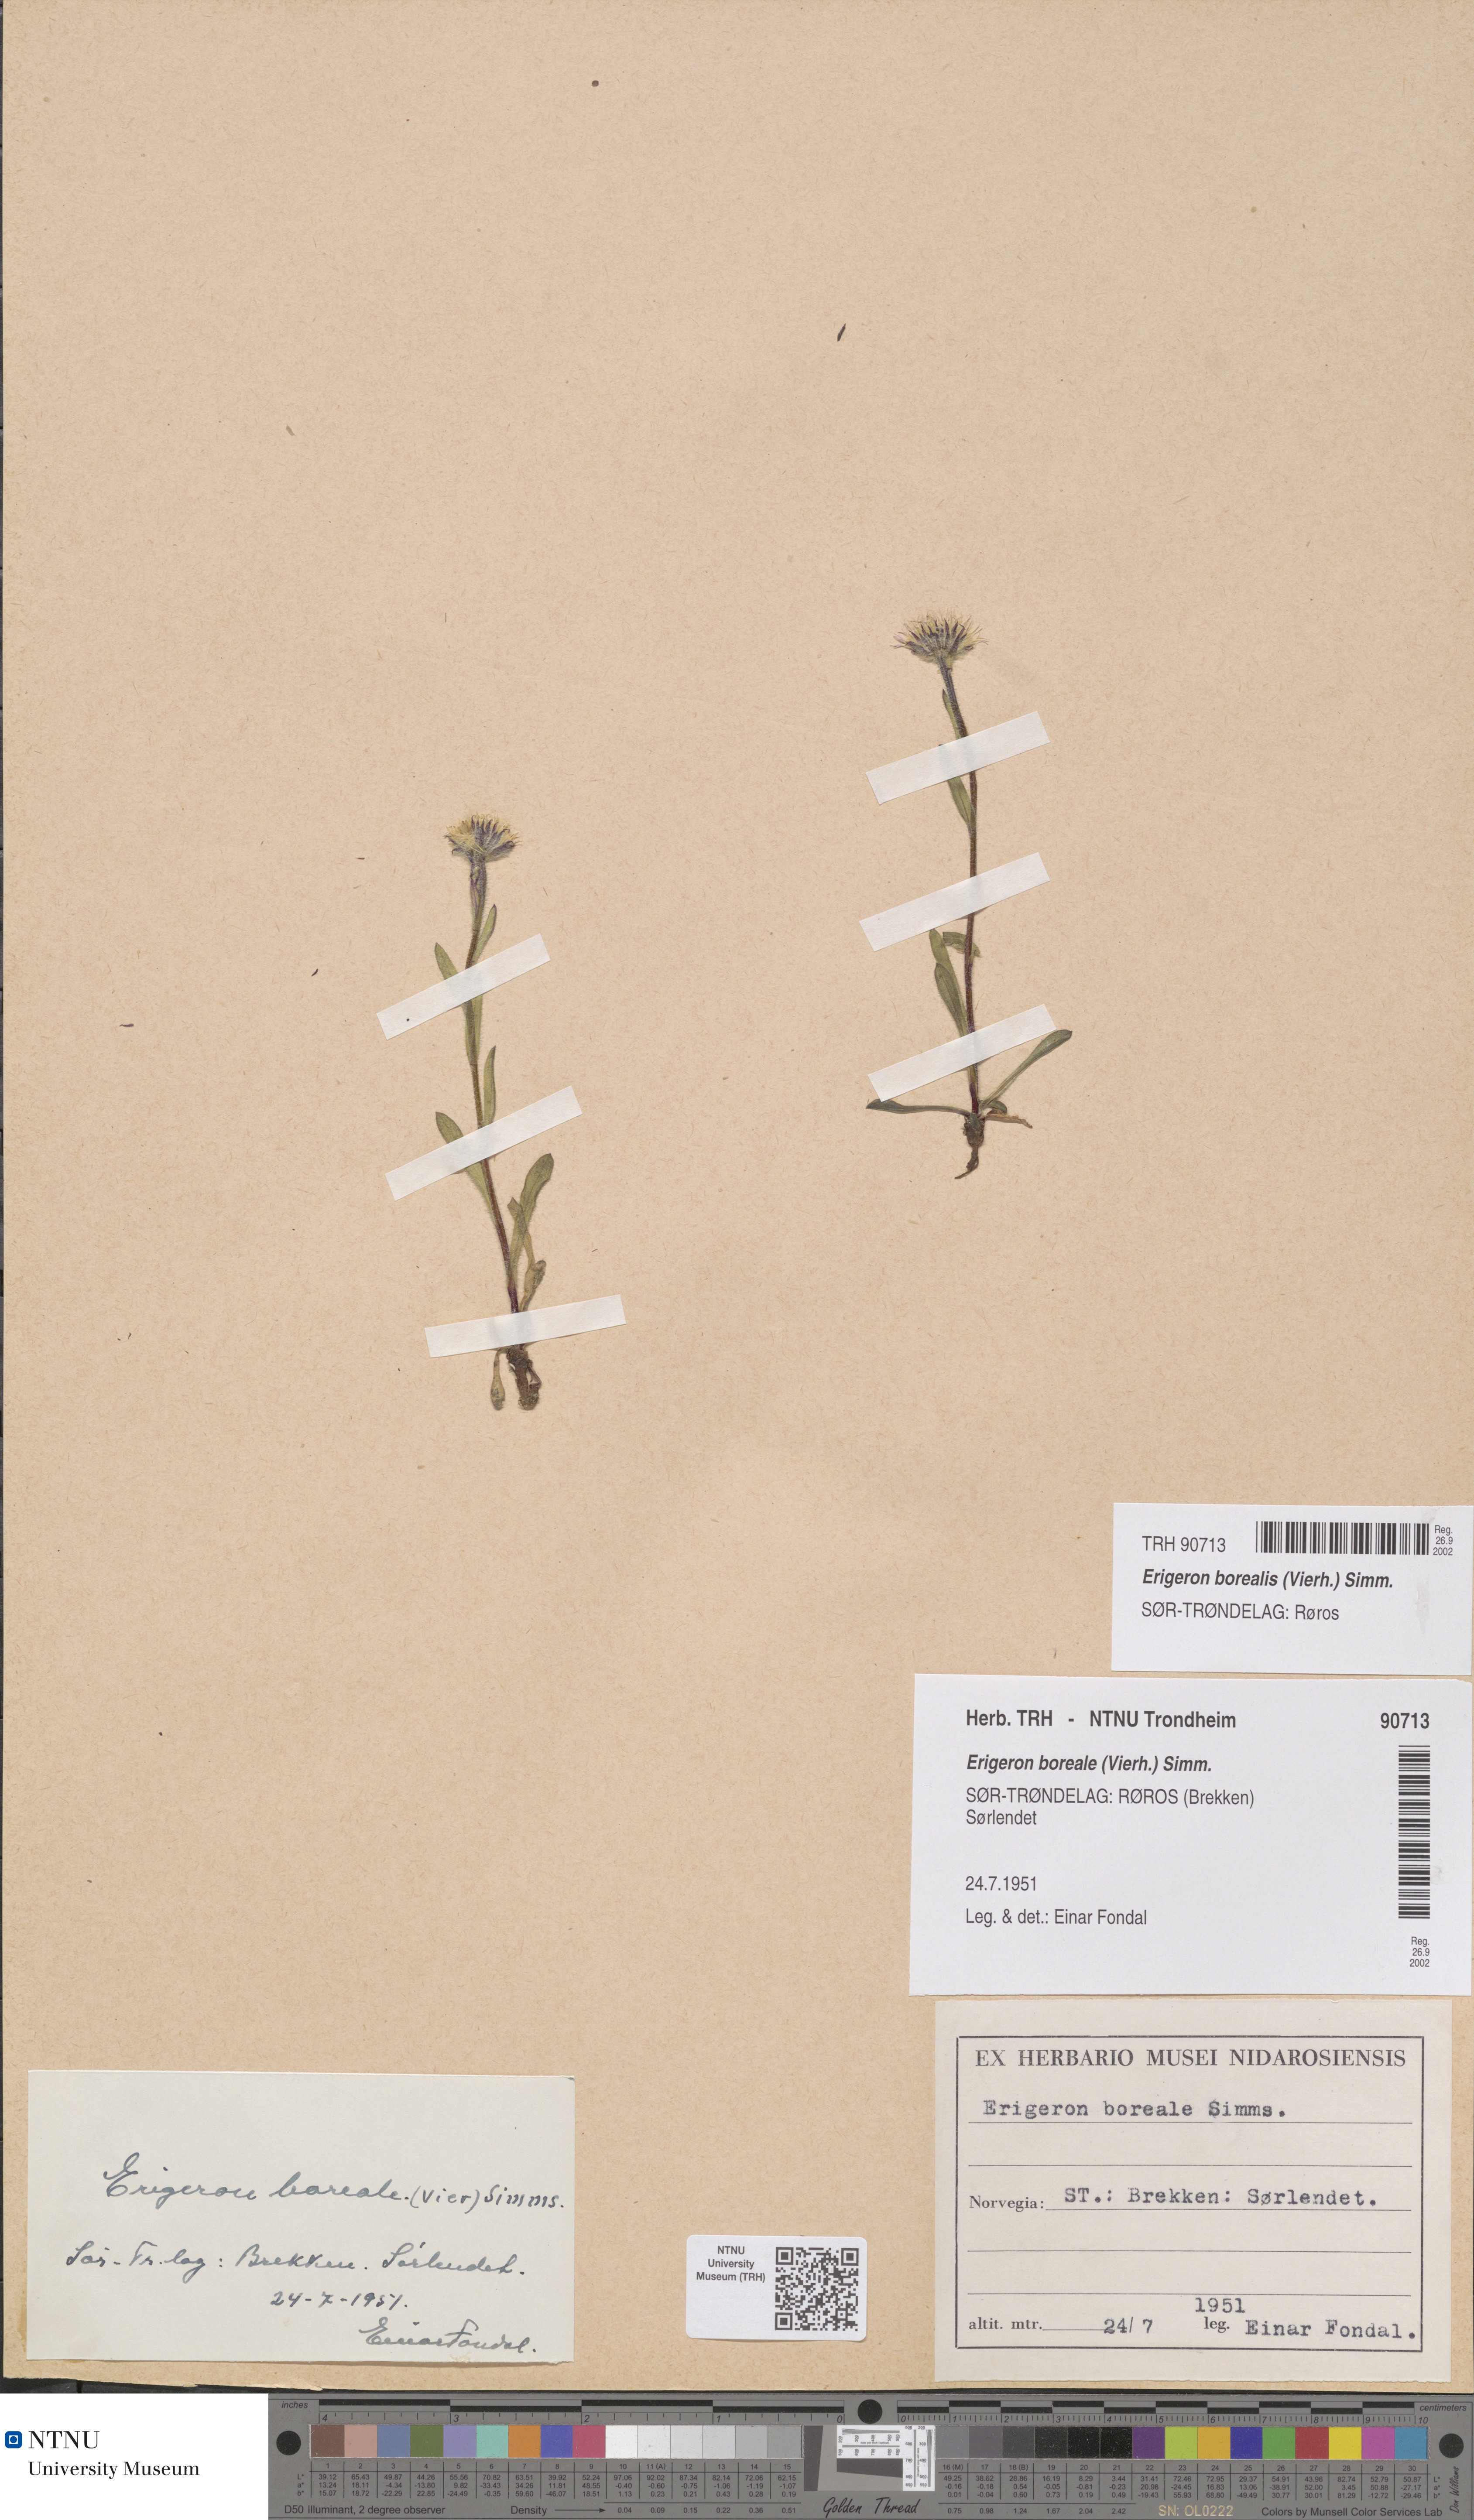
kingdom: Plantae
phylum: Tracheophyta
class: Magnoliopsida
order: Asterales
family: Asteraceae
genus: Erigeron
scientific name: Erigeron borealis
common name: Alpine fleabane
